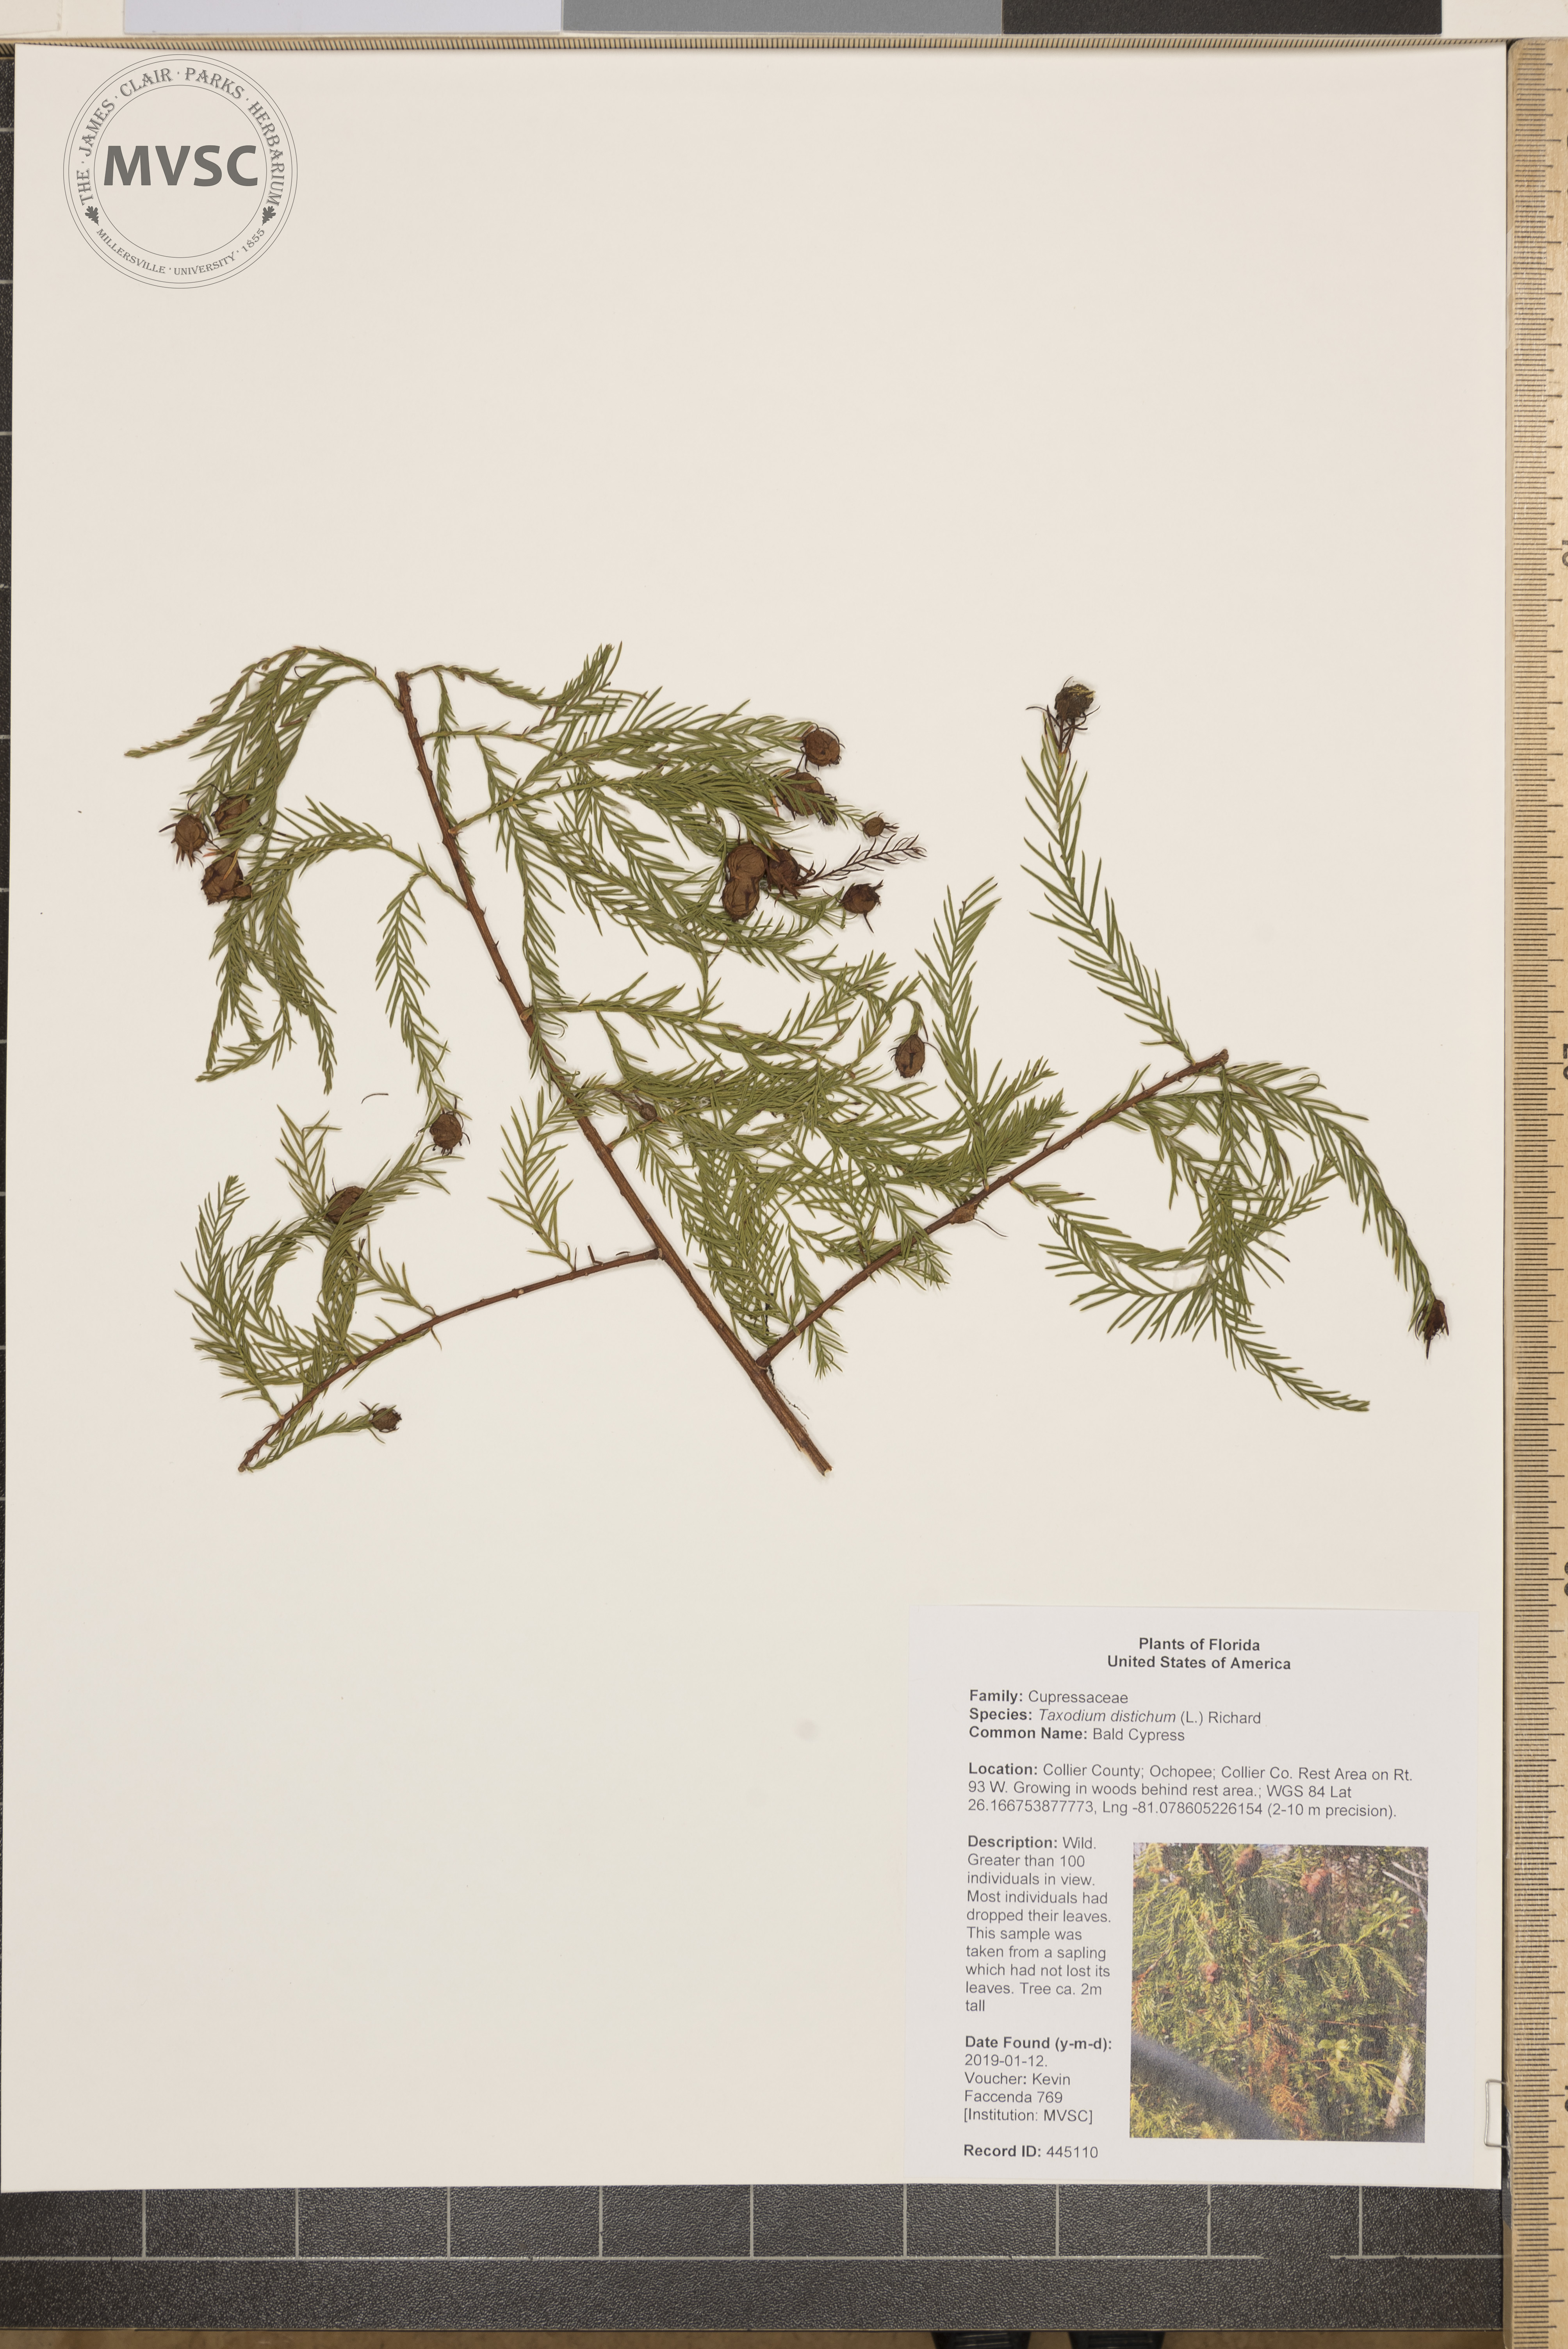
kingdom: Plantae
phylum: Tracheophyta
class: Pinopsida
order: Pinales
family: Cupressaceae
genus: Taxodium
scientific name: Taxodium distichum
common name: Bald Cypress
